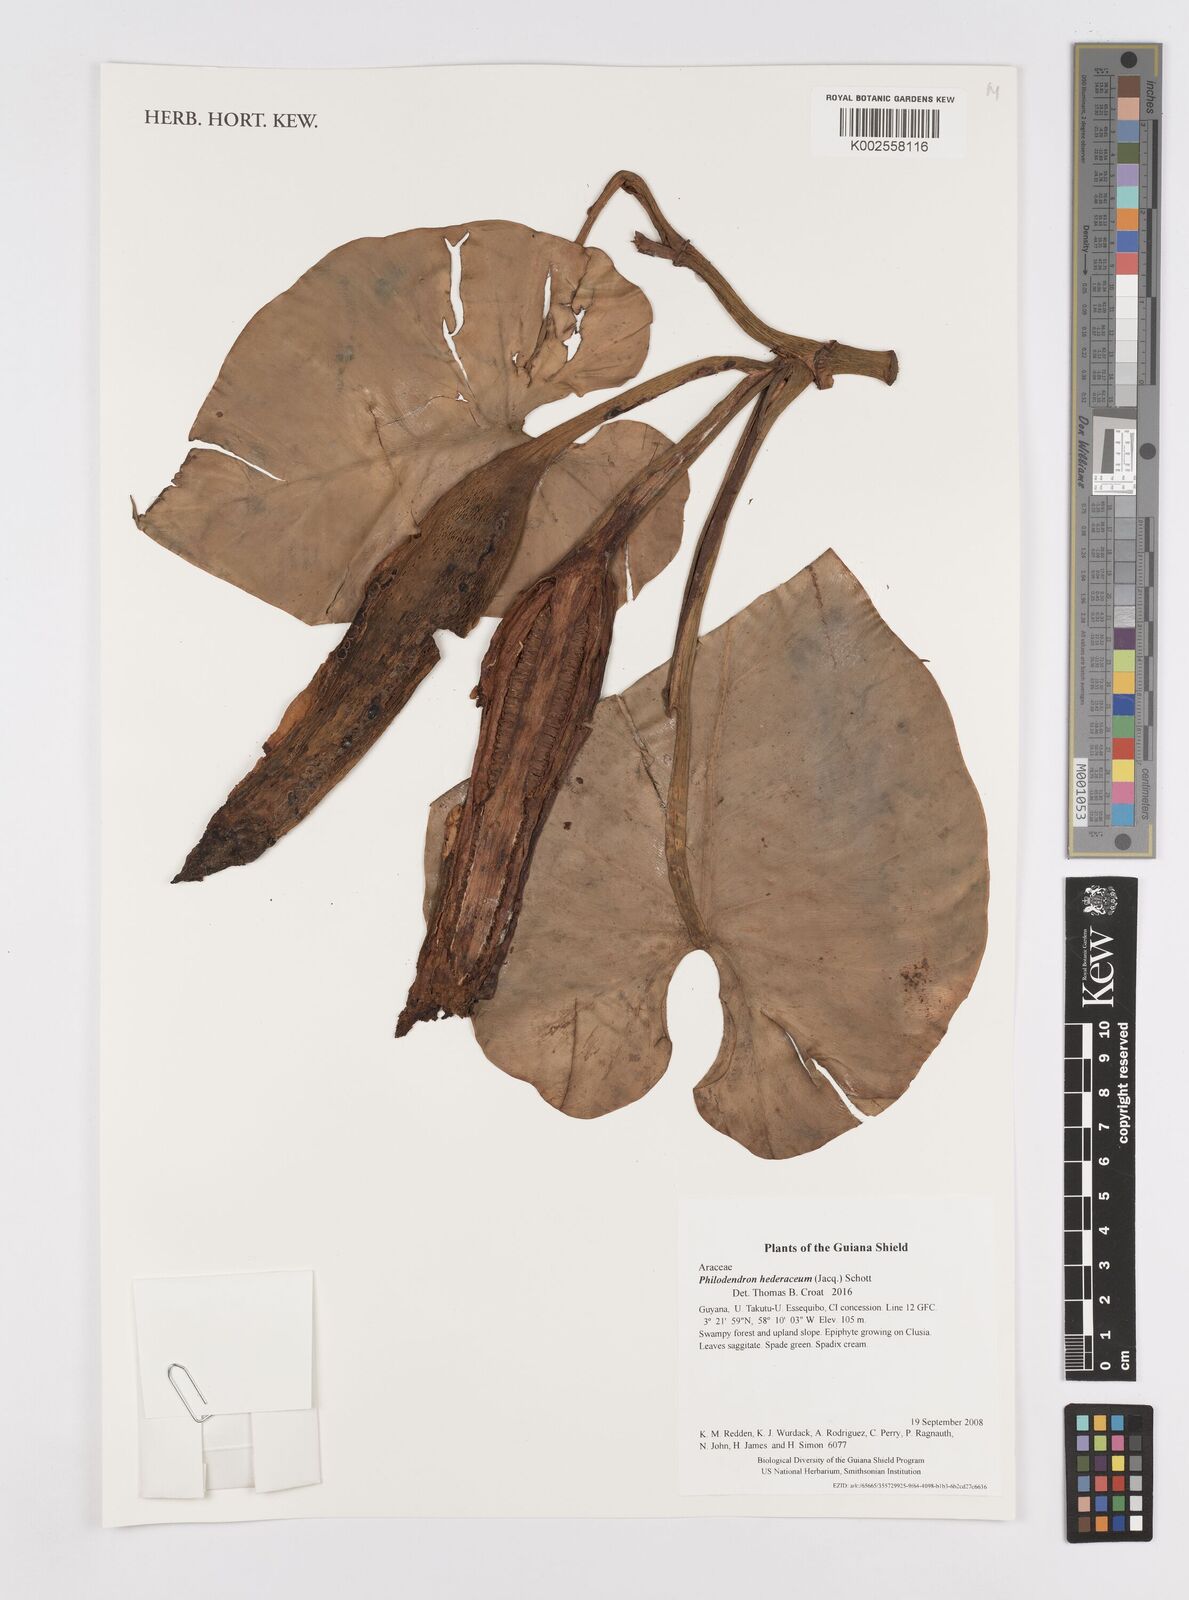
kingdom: Plantae
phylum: Tracheophyta
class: Liliopsida
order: Alismatales
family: Araceae
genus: Philodendron
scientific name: Philodendron hederaceum
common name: Vilevine
